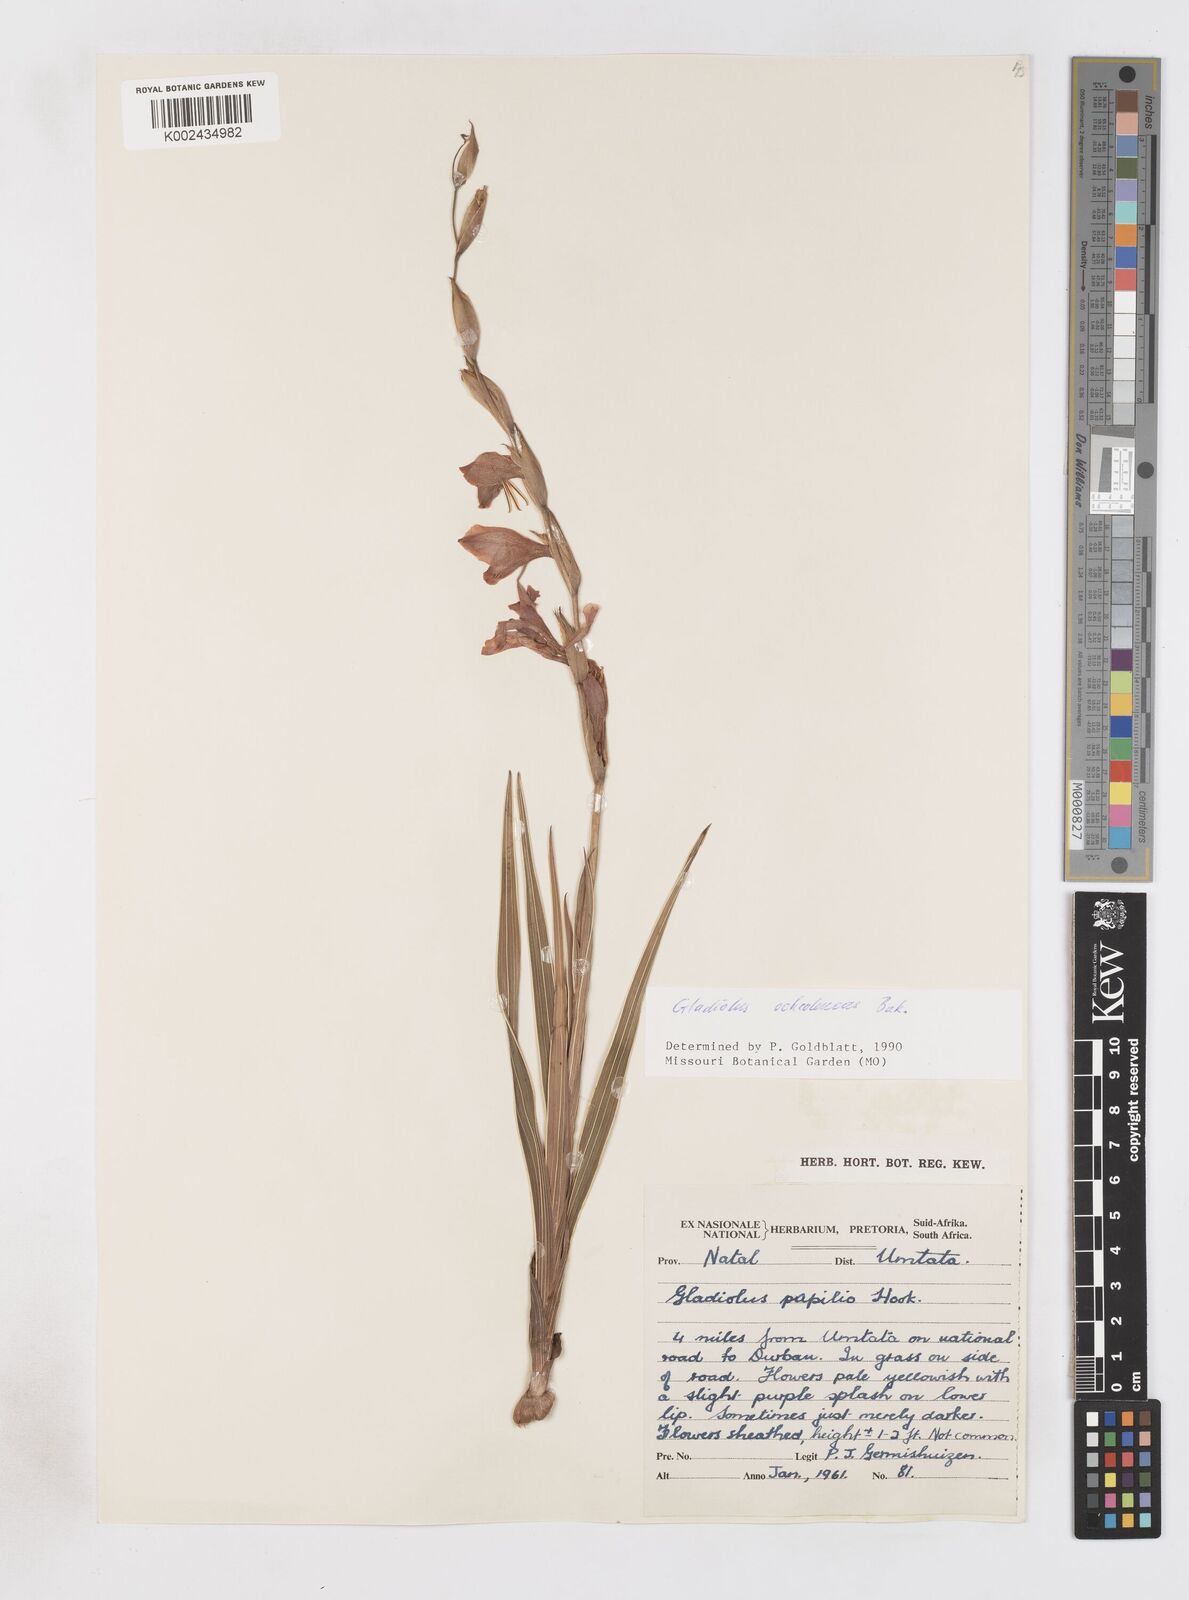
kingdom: Plantae
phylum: Tracheophyta
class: Liliopsida
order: Asparagales
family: Iridaceae
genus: Gladiolus
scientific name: Gladiolus ochroleucus
